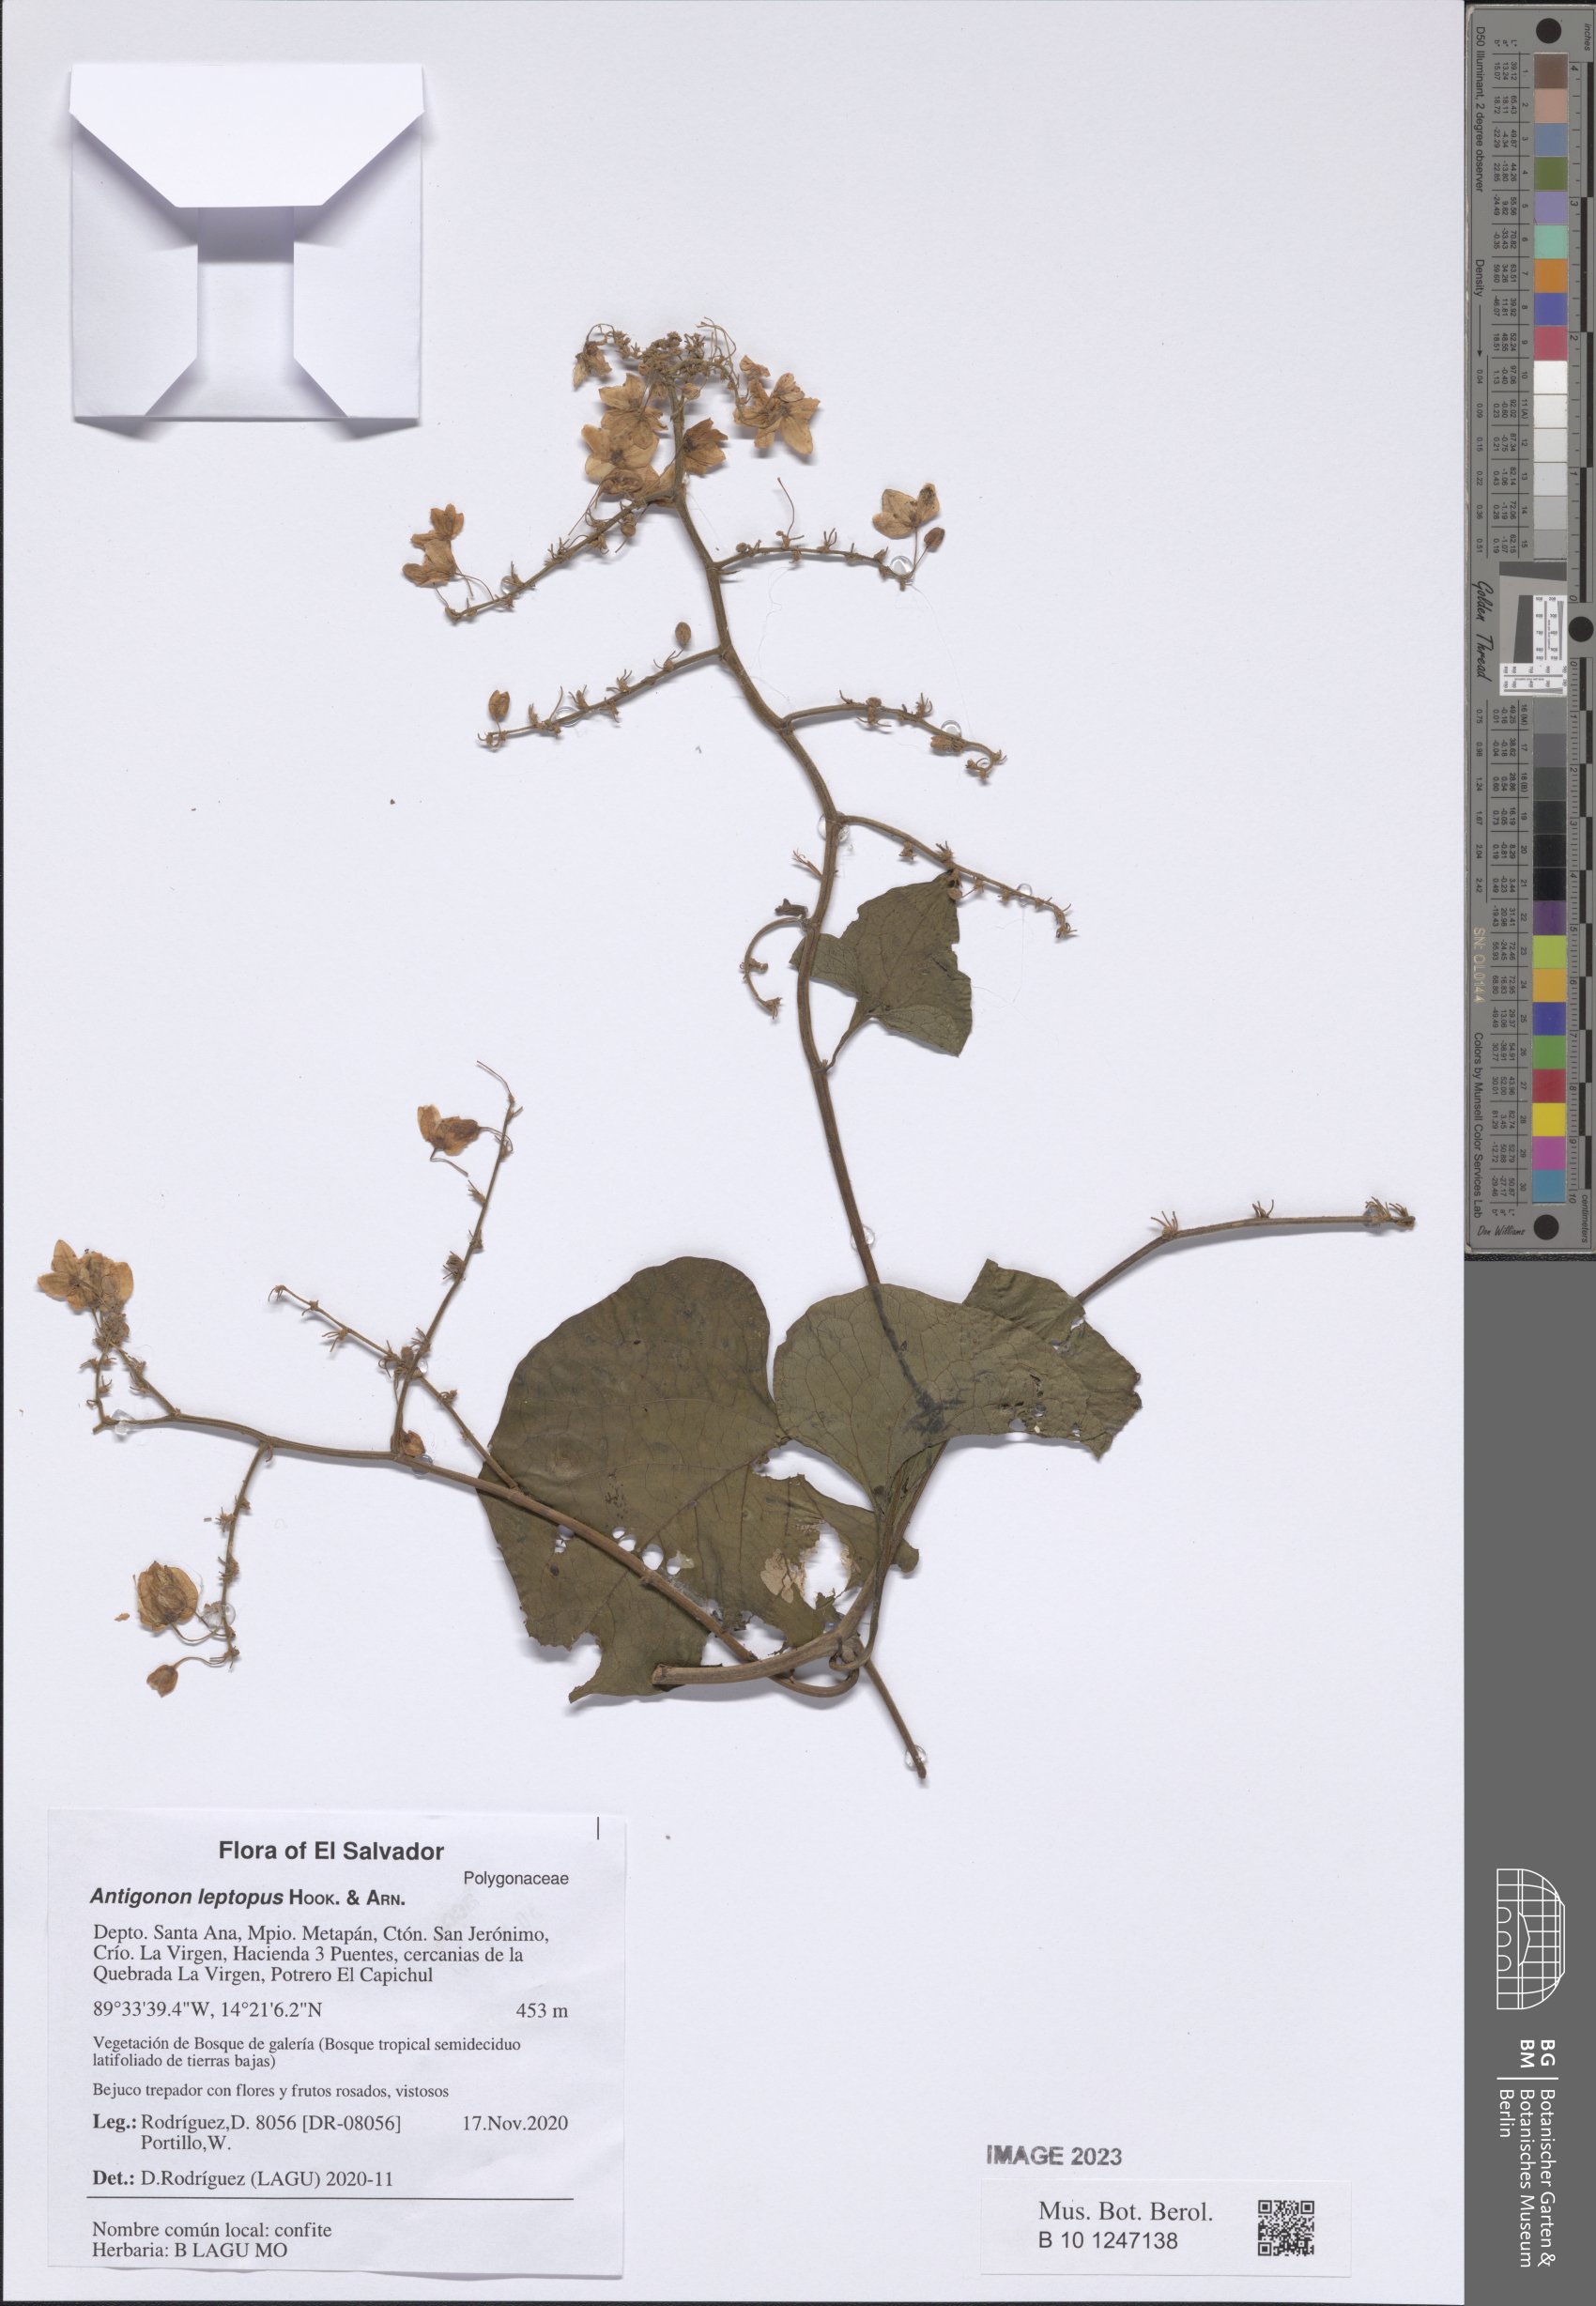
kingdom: Plantae
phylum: Tracheophyta
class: Magnoliopsida
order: Caryophyllales
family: Polygonaceae
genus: Antigonon
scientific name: Antigonon leptopus
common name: Coral vine
